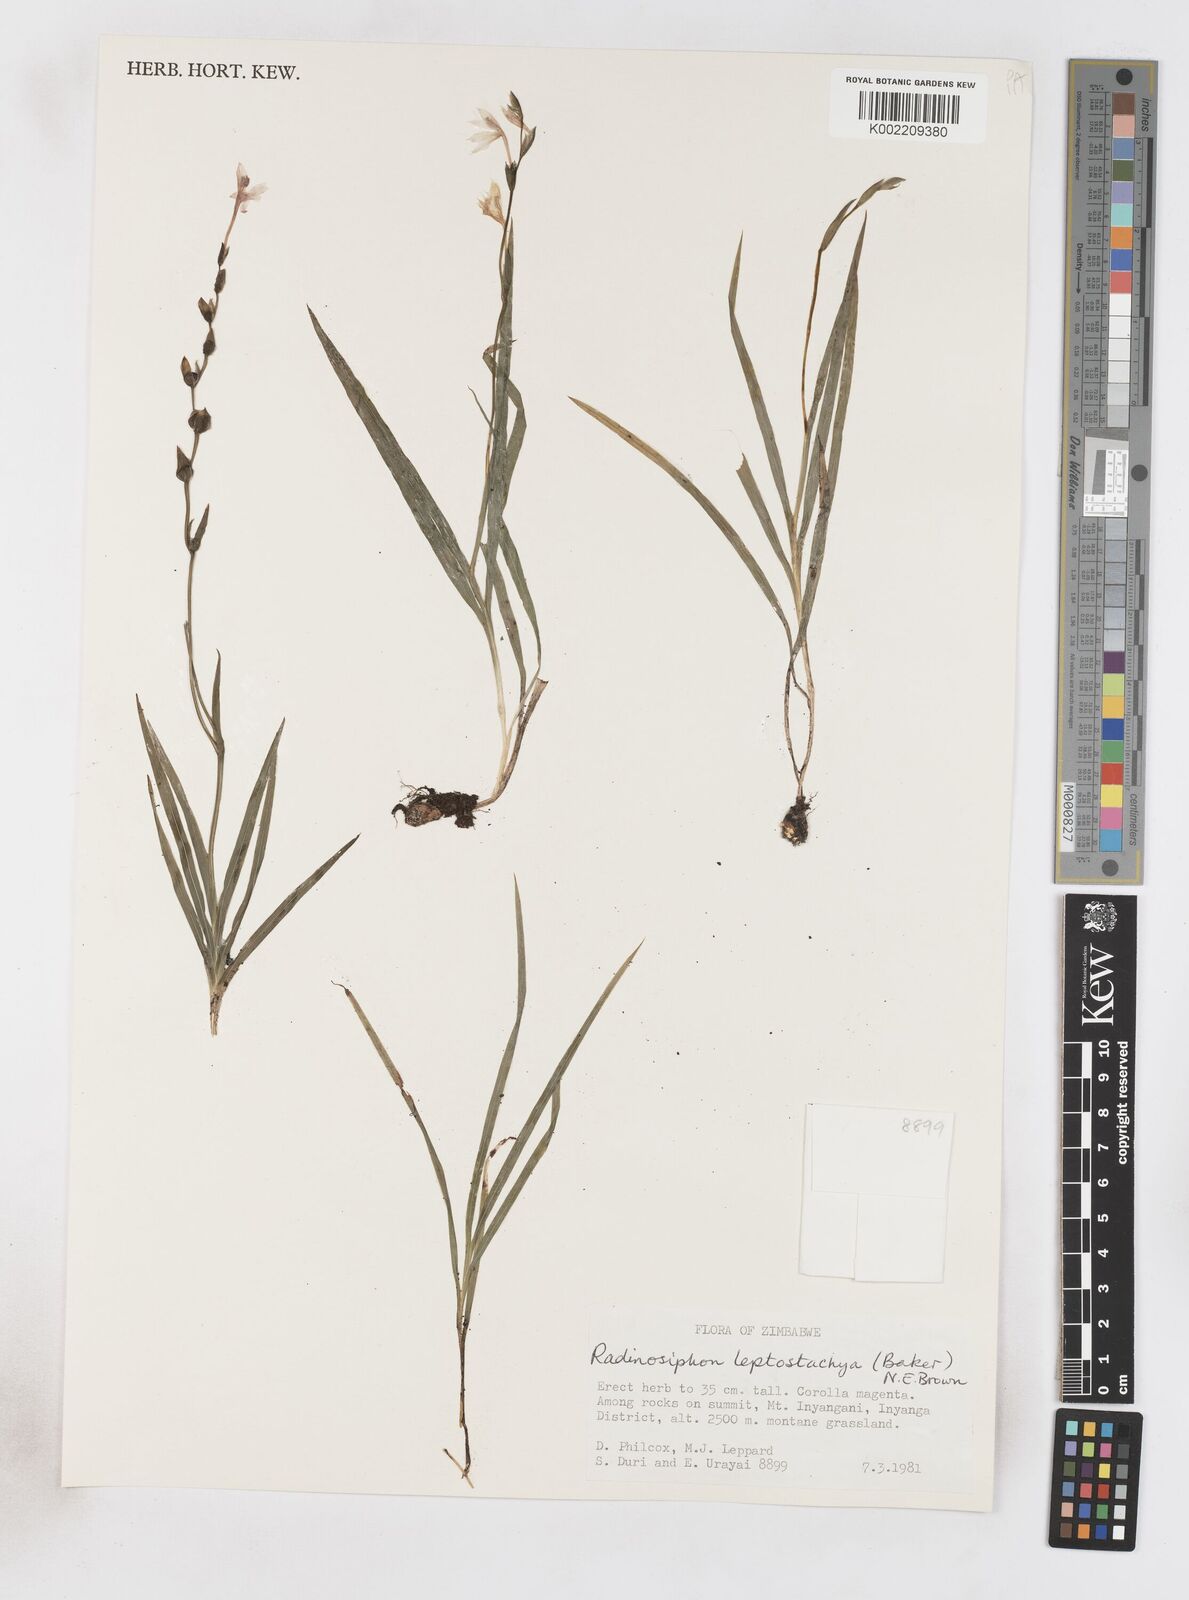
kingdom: Plantae
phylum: Tracheophyta
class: Liliopsida
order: Asparagales
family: Iridaceae
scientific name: Iridaceae
